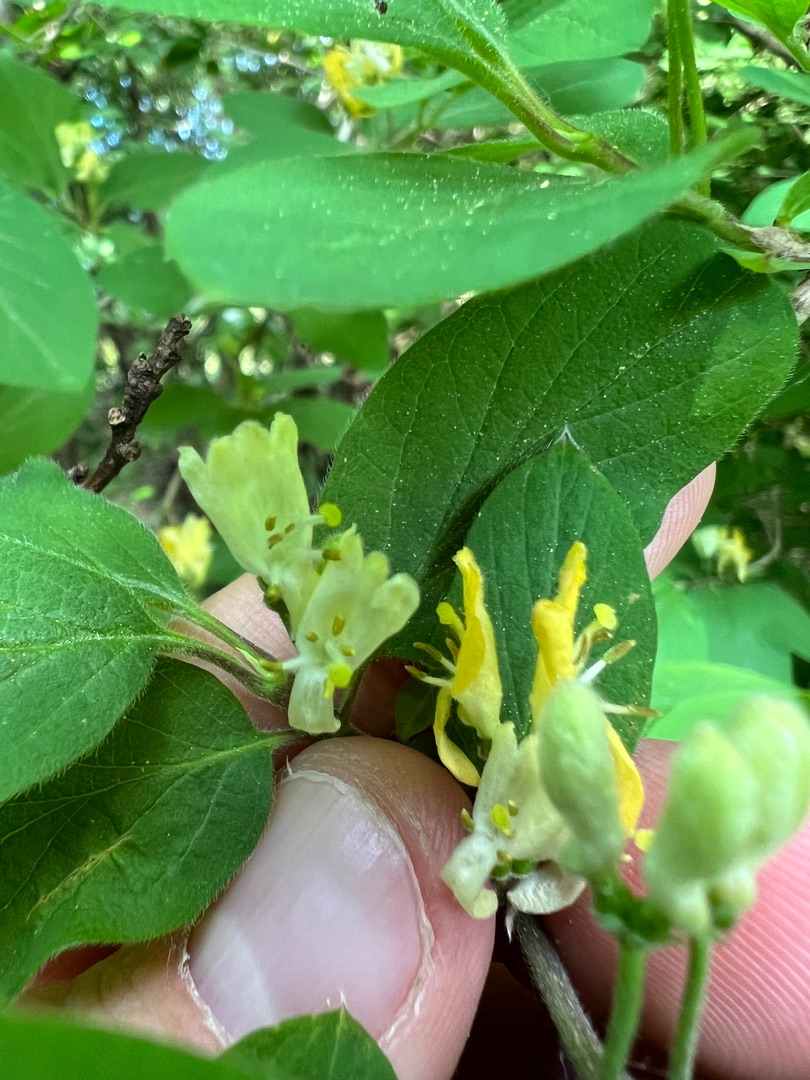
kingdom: Plantae
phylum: Tracheophyta
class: Magnoliopsida
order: Dipsacales
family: Caprifoliaceae
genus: Lonicera
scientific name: Lonicera xylosteum
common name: Dunet gedeblad
